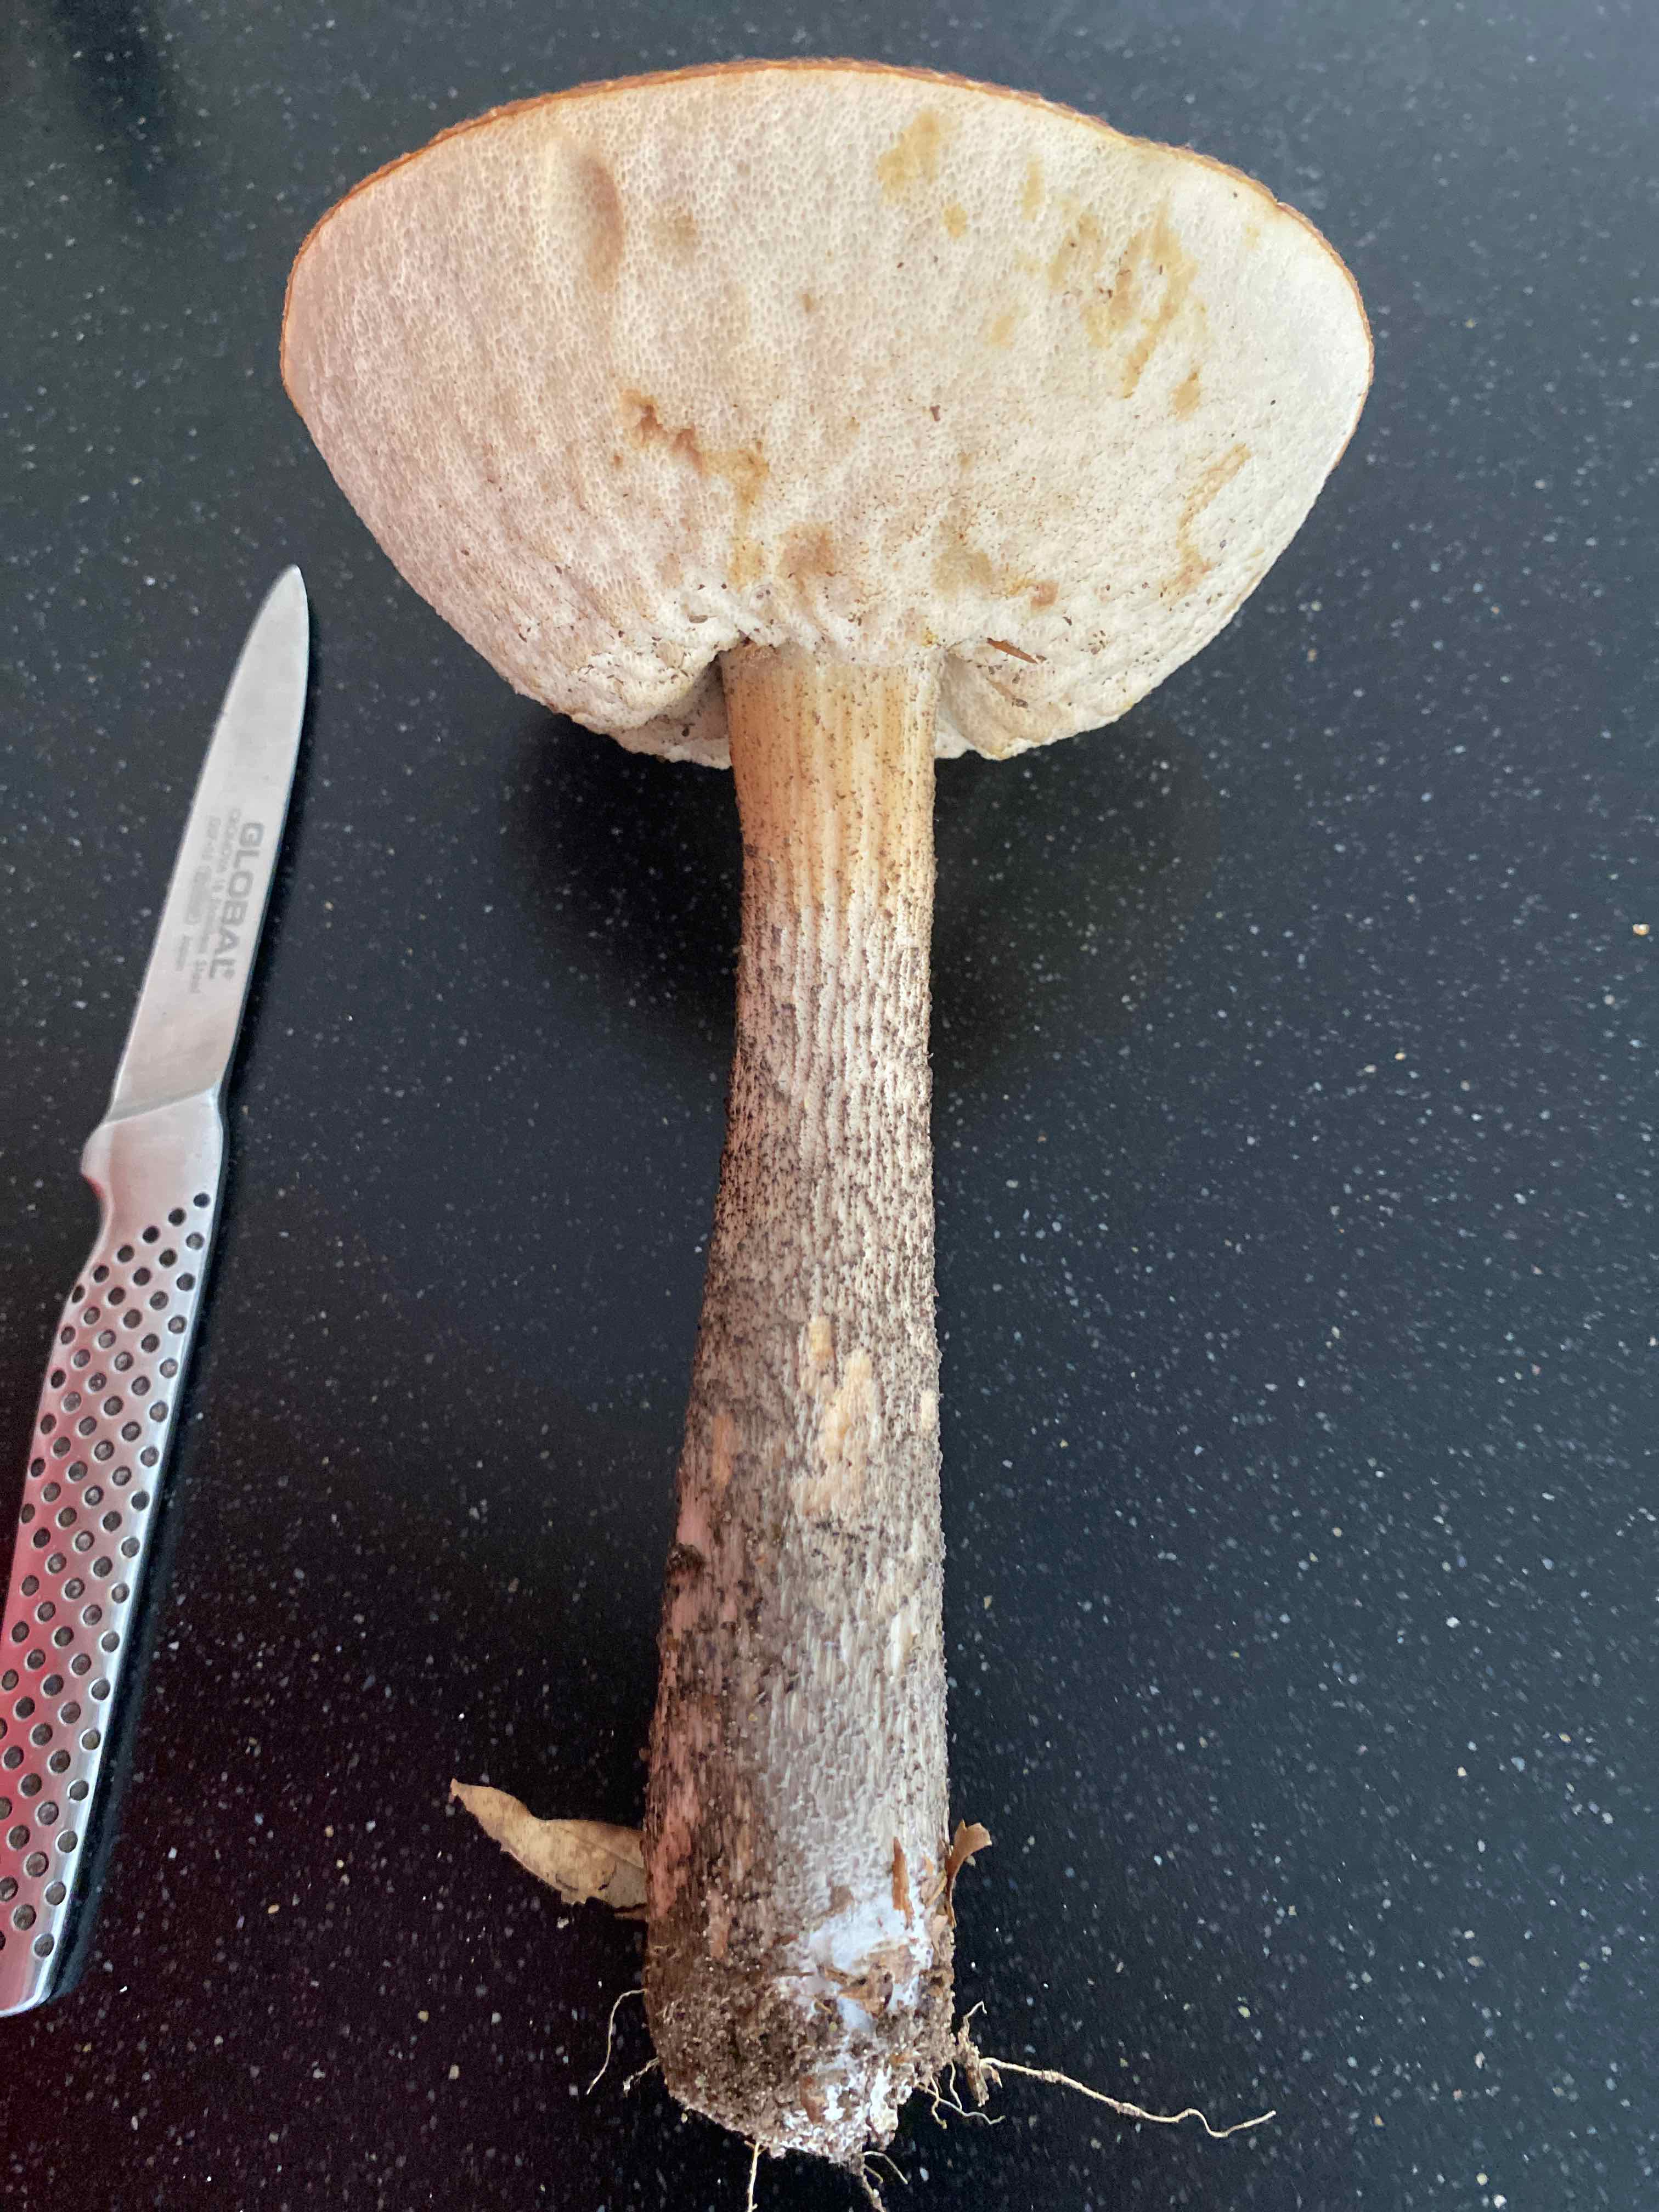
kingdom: Fungi
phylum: Basidiomycota
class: Agaricomycetes
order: Boletales
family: Boletaceae
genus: Leccinum
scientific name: Leccinum scabrum
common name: brun skælrørhat
